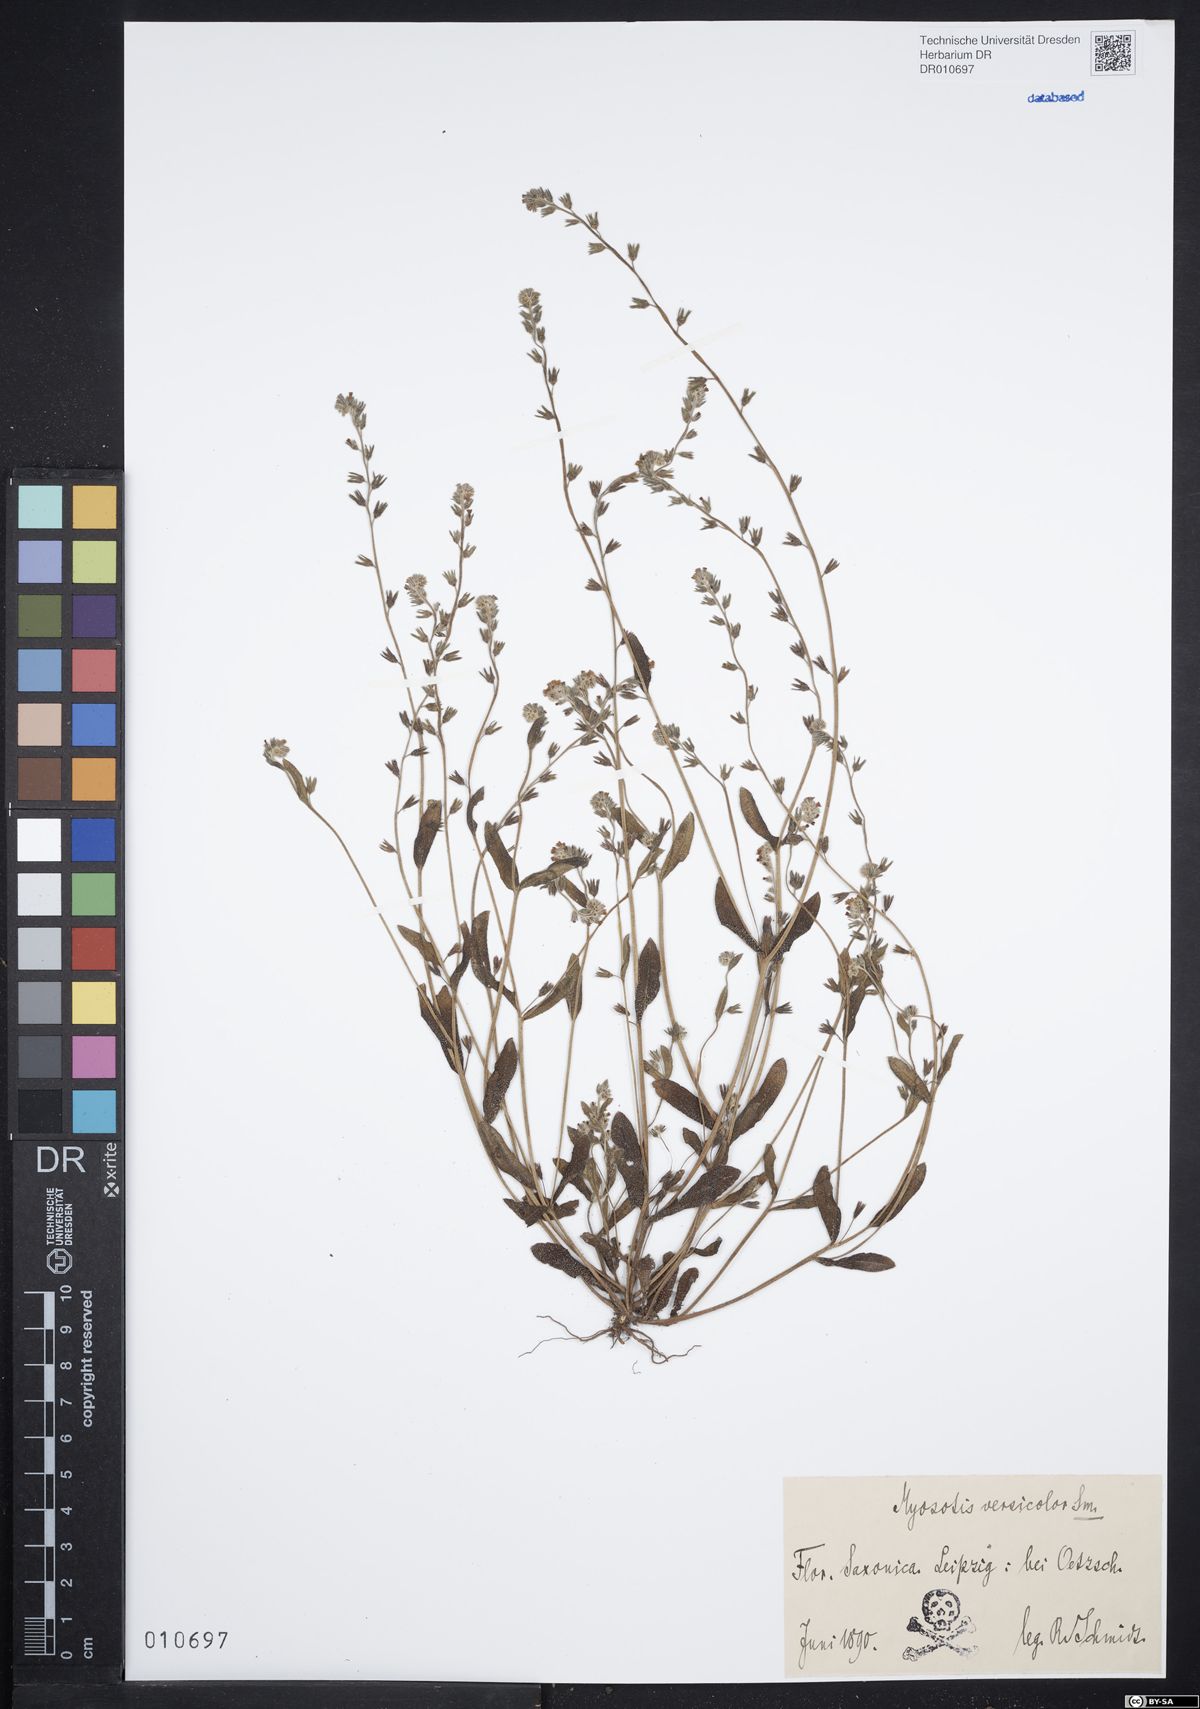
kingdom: Plantae
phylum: Tracheophyta
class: Magnoliopsida
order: Boraginales
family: Boraginaceae
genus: Myosotis
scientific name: Myosotis discolor
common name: Changing forget-me-not
